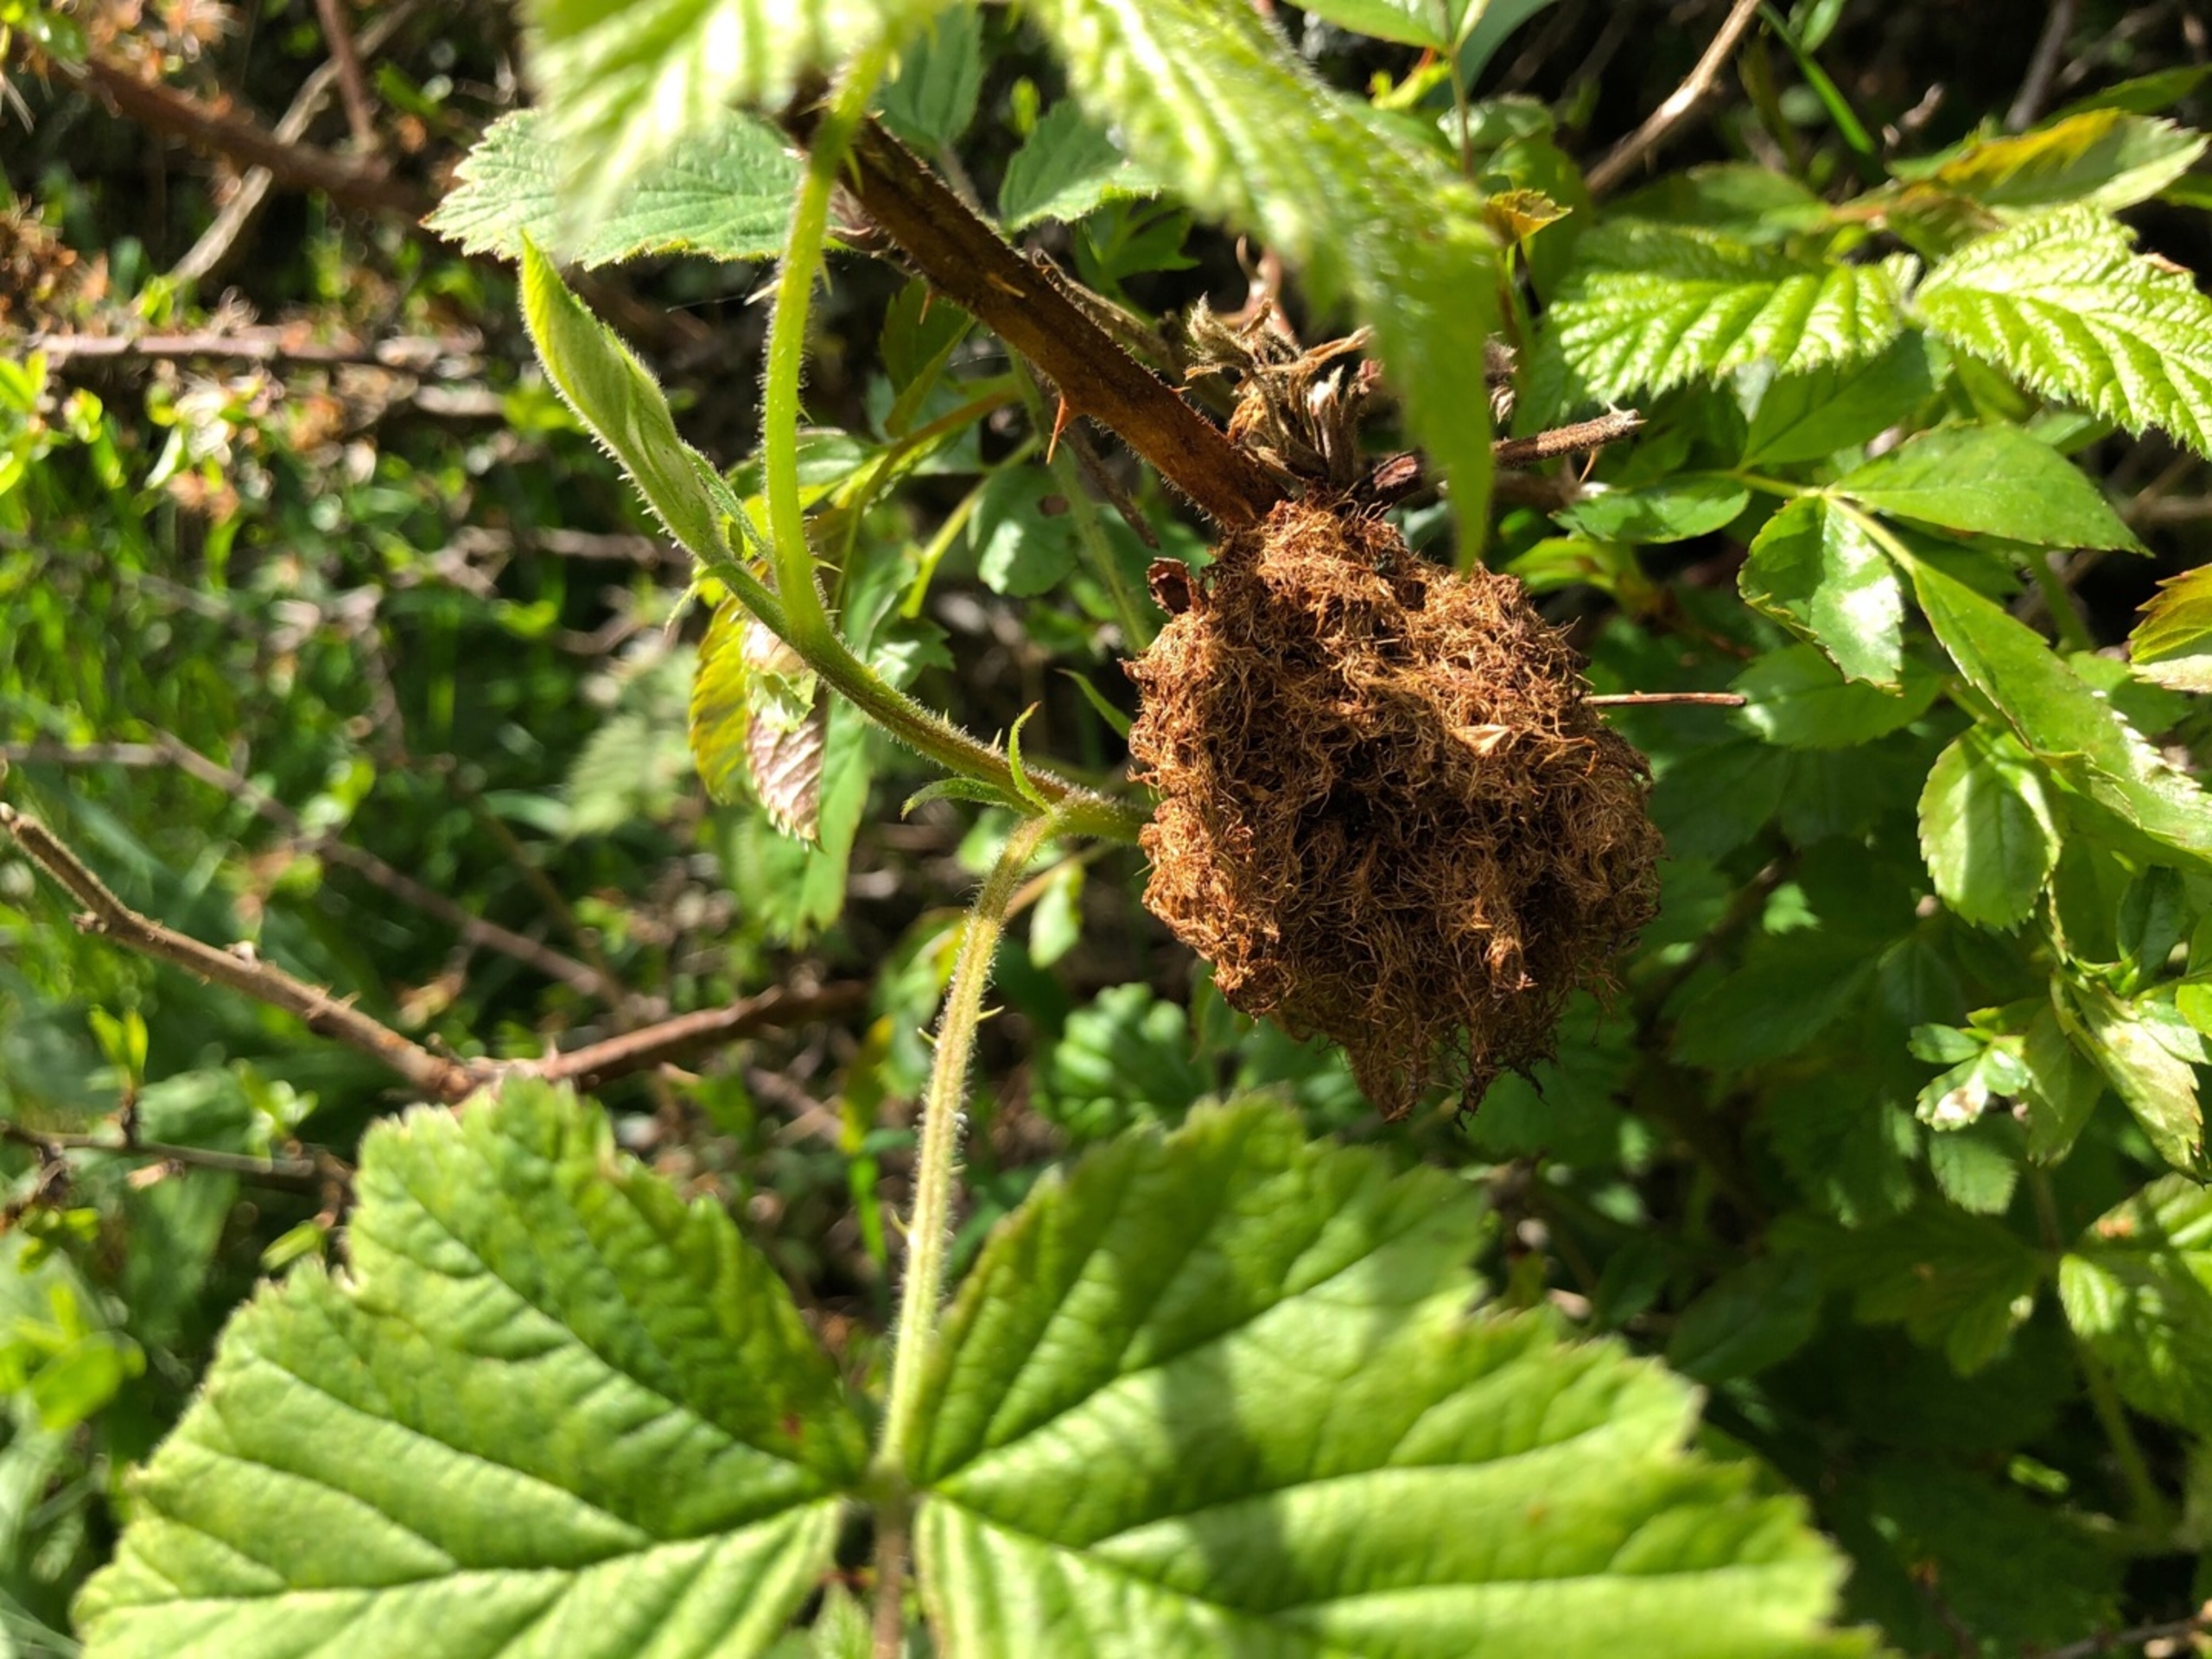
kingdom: Animalia
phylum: Arthropoda
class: Insecta
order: Hymenoptera
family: Cynipidae
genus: Diplolepis
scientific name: Diplolepis rosae
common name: Bedeguargalhveps
